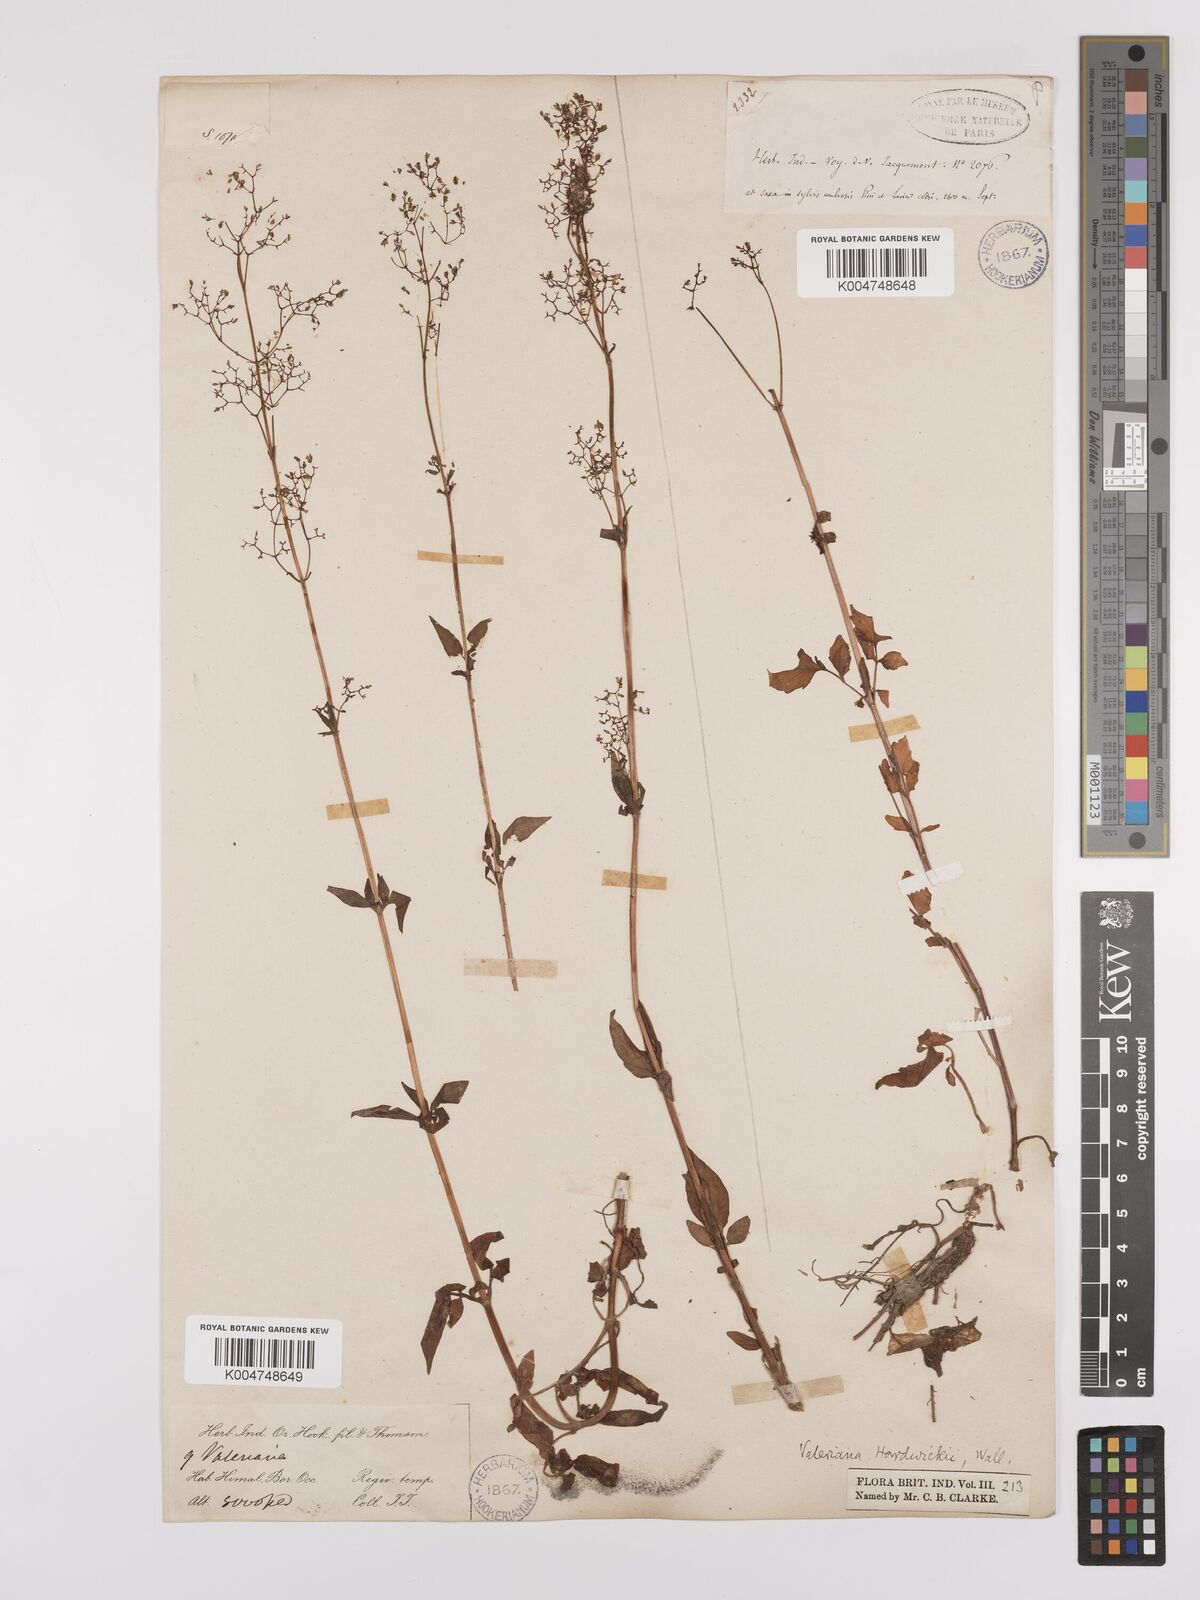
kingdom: Plantae
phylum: Tracheophyta
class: Magnoliopsida
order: Dipsacales
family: Caprifoliaceae
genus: Valeriana
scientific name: Valeriana hardwickei
